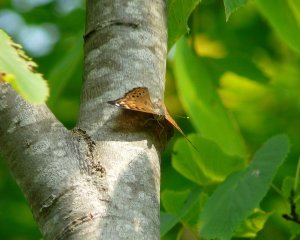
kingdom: Animalia
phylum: Arthropoda
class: Insecta
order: Lepidoptera
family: Nymphalidae
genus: Asterocampa
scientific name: Asterocampa celtis
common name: Hackberry Emperor
